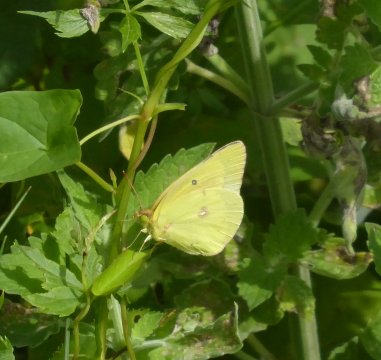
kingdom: Animalia
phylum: Arthropoda
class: Insecta
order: Lepidoptera
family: Pieridae
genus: Colias
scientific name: Colias philodice
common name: Clouded Sulphur
